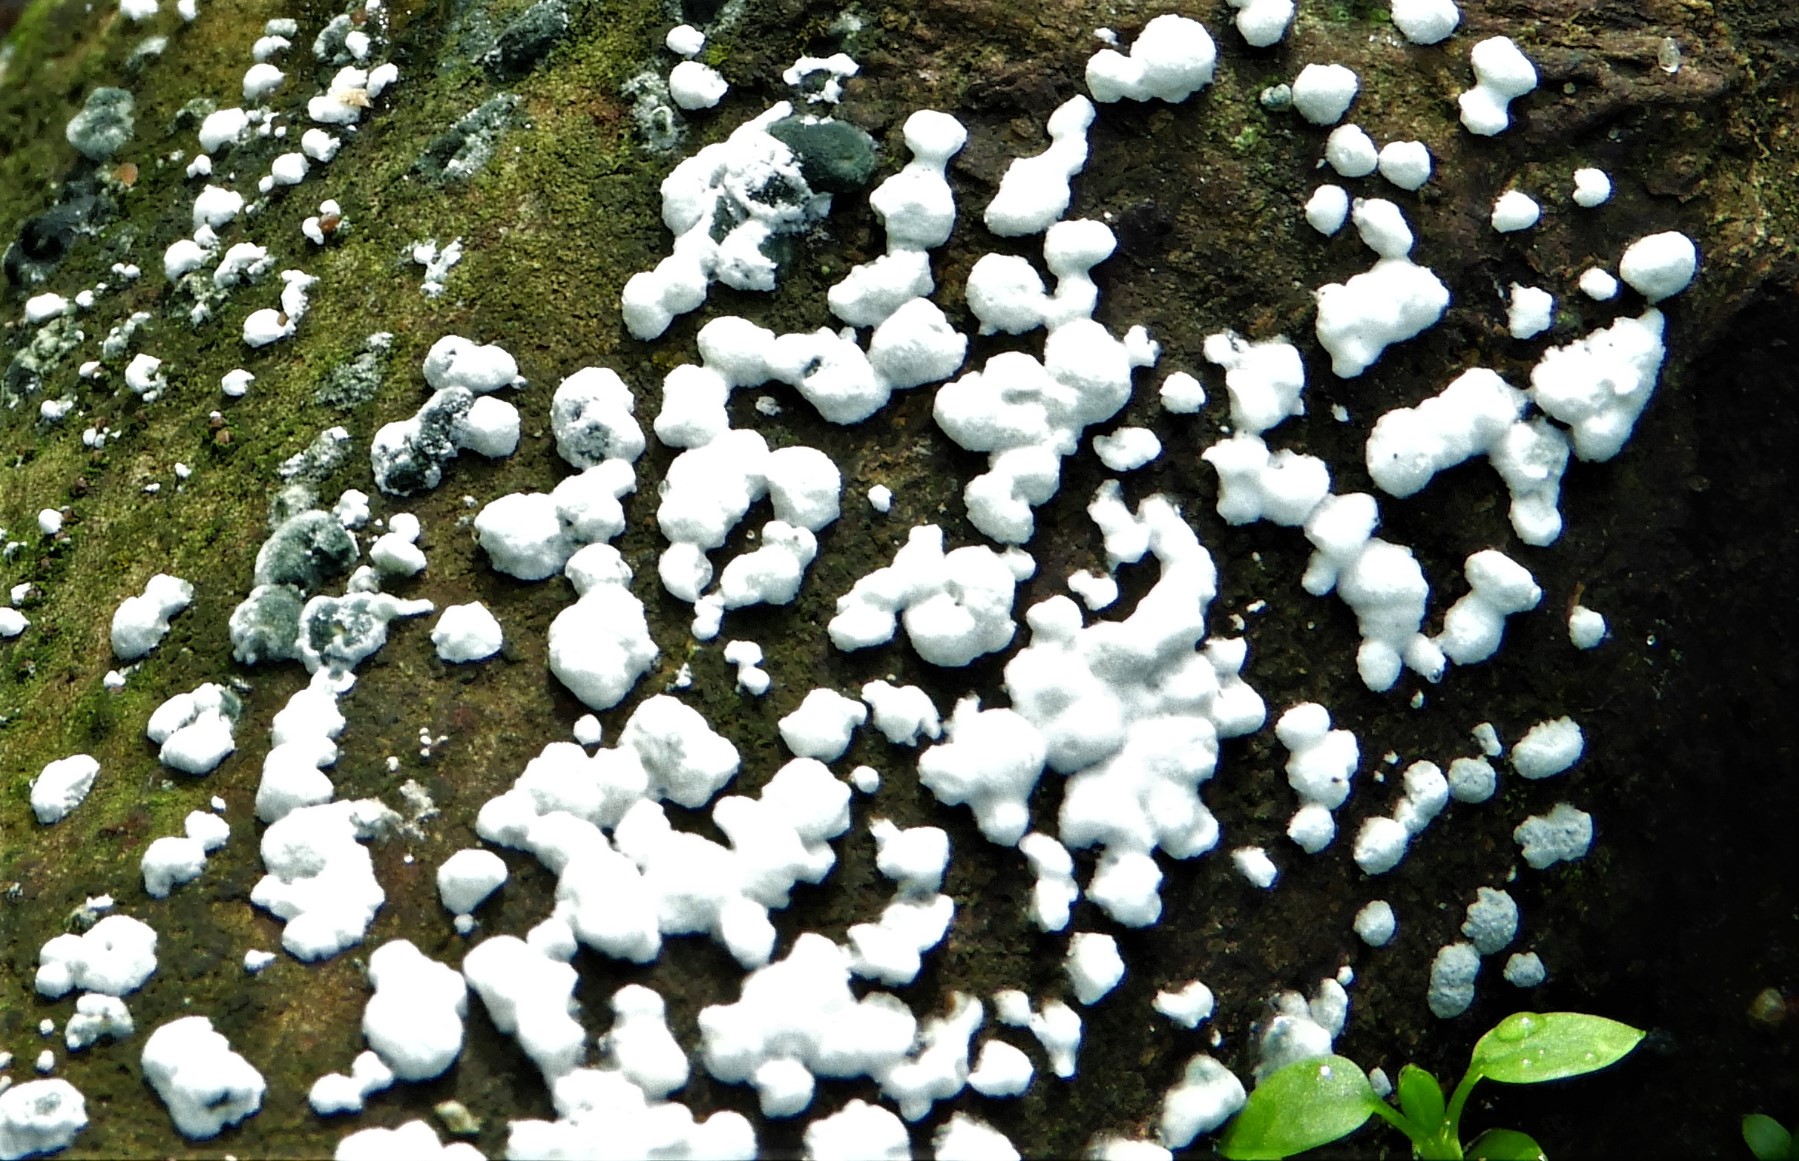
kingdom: Fungi
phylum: Ascomycota
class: Sordariomycetes
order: Hypocreales
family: Hypocreaceae
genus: Protocrea
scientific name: Protocrea
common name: kødkerne
